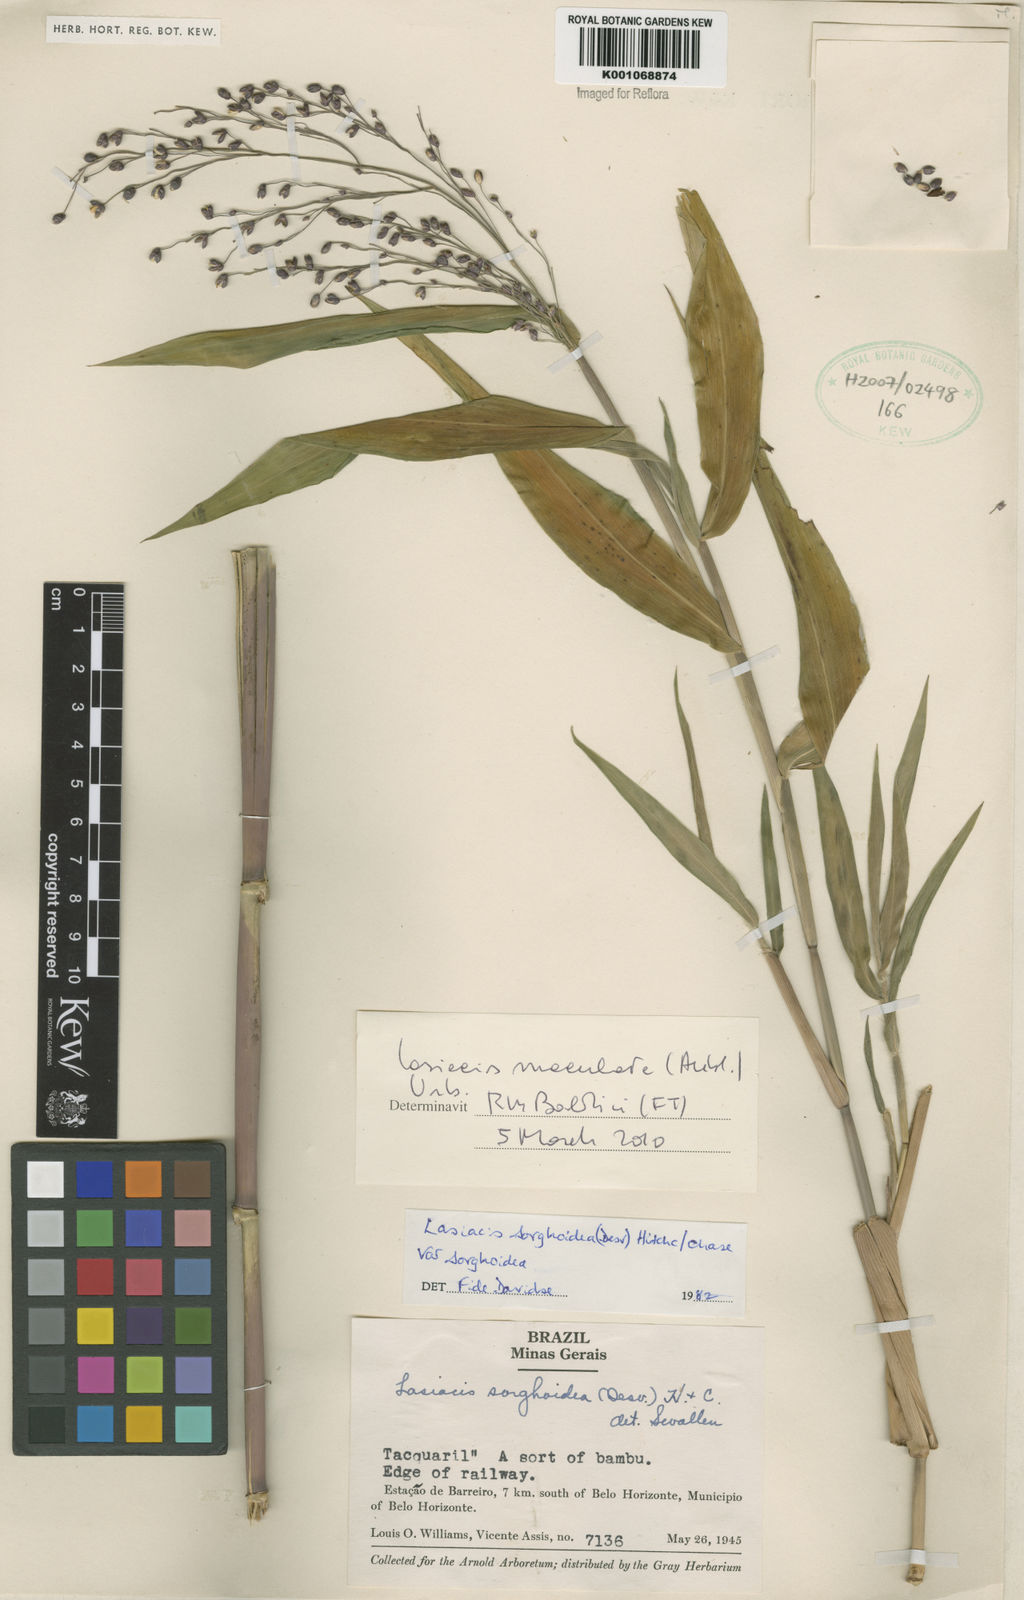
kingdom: Plantae
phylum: Tracheophyta
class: Liliopsida
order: Poales
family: Poaceae
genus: Lasiacis
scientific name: Lasiacis maculata
